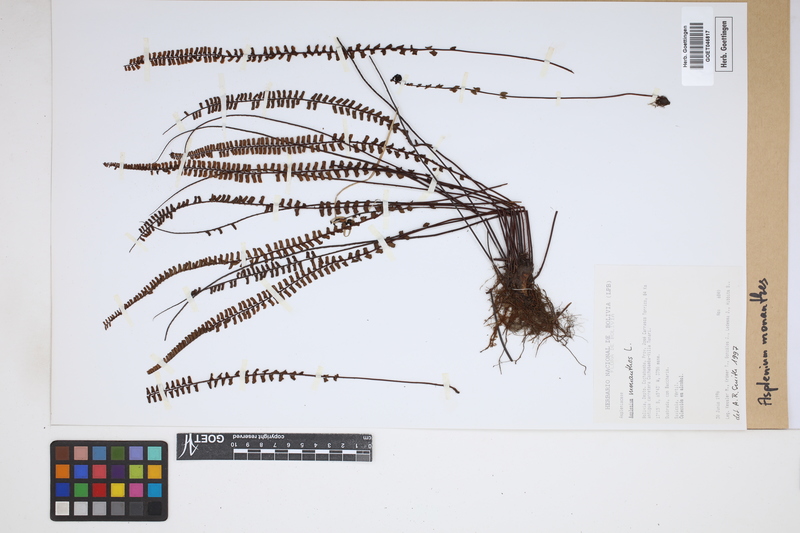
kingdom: Plantae
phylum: Tracheophyta
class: Polypodiopsida
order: Polypodiales
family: Aspleniaceae
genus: Asplenium
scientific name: Asplenium monanthes
